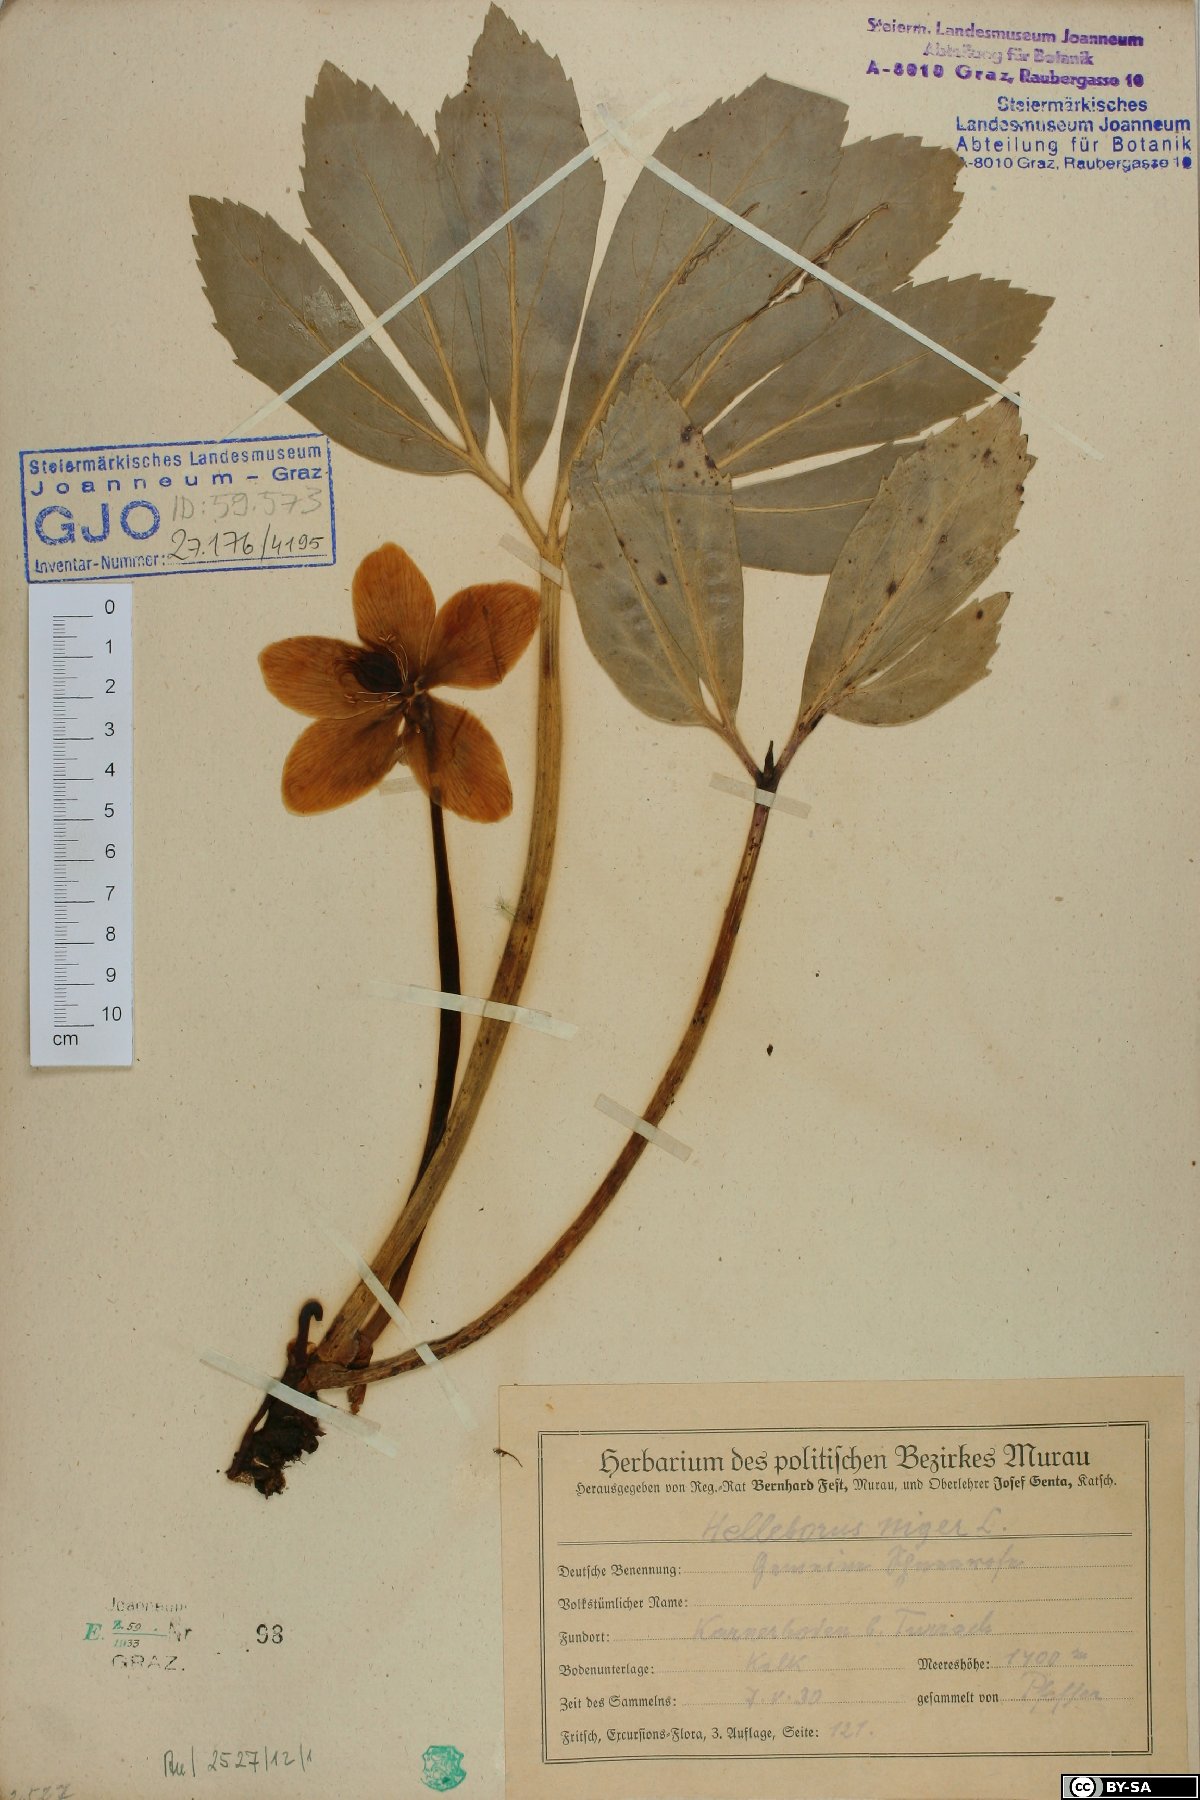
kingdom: Plantae
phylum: Tracheophyta
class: Magnoliopsida
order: Ranunculales
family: Ranunculaceae
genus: Helleborus
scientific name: Helleborus niger
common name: Black hellebore
